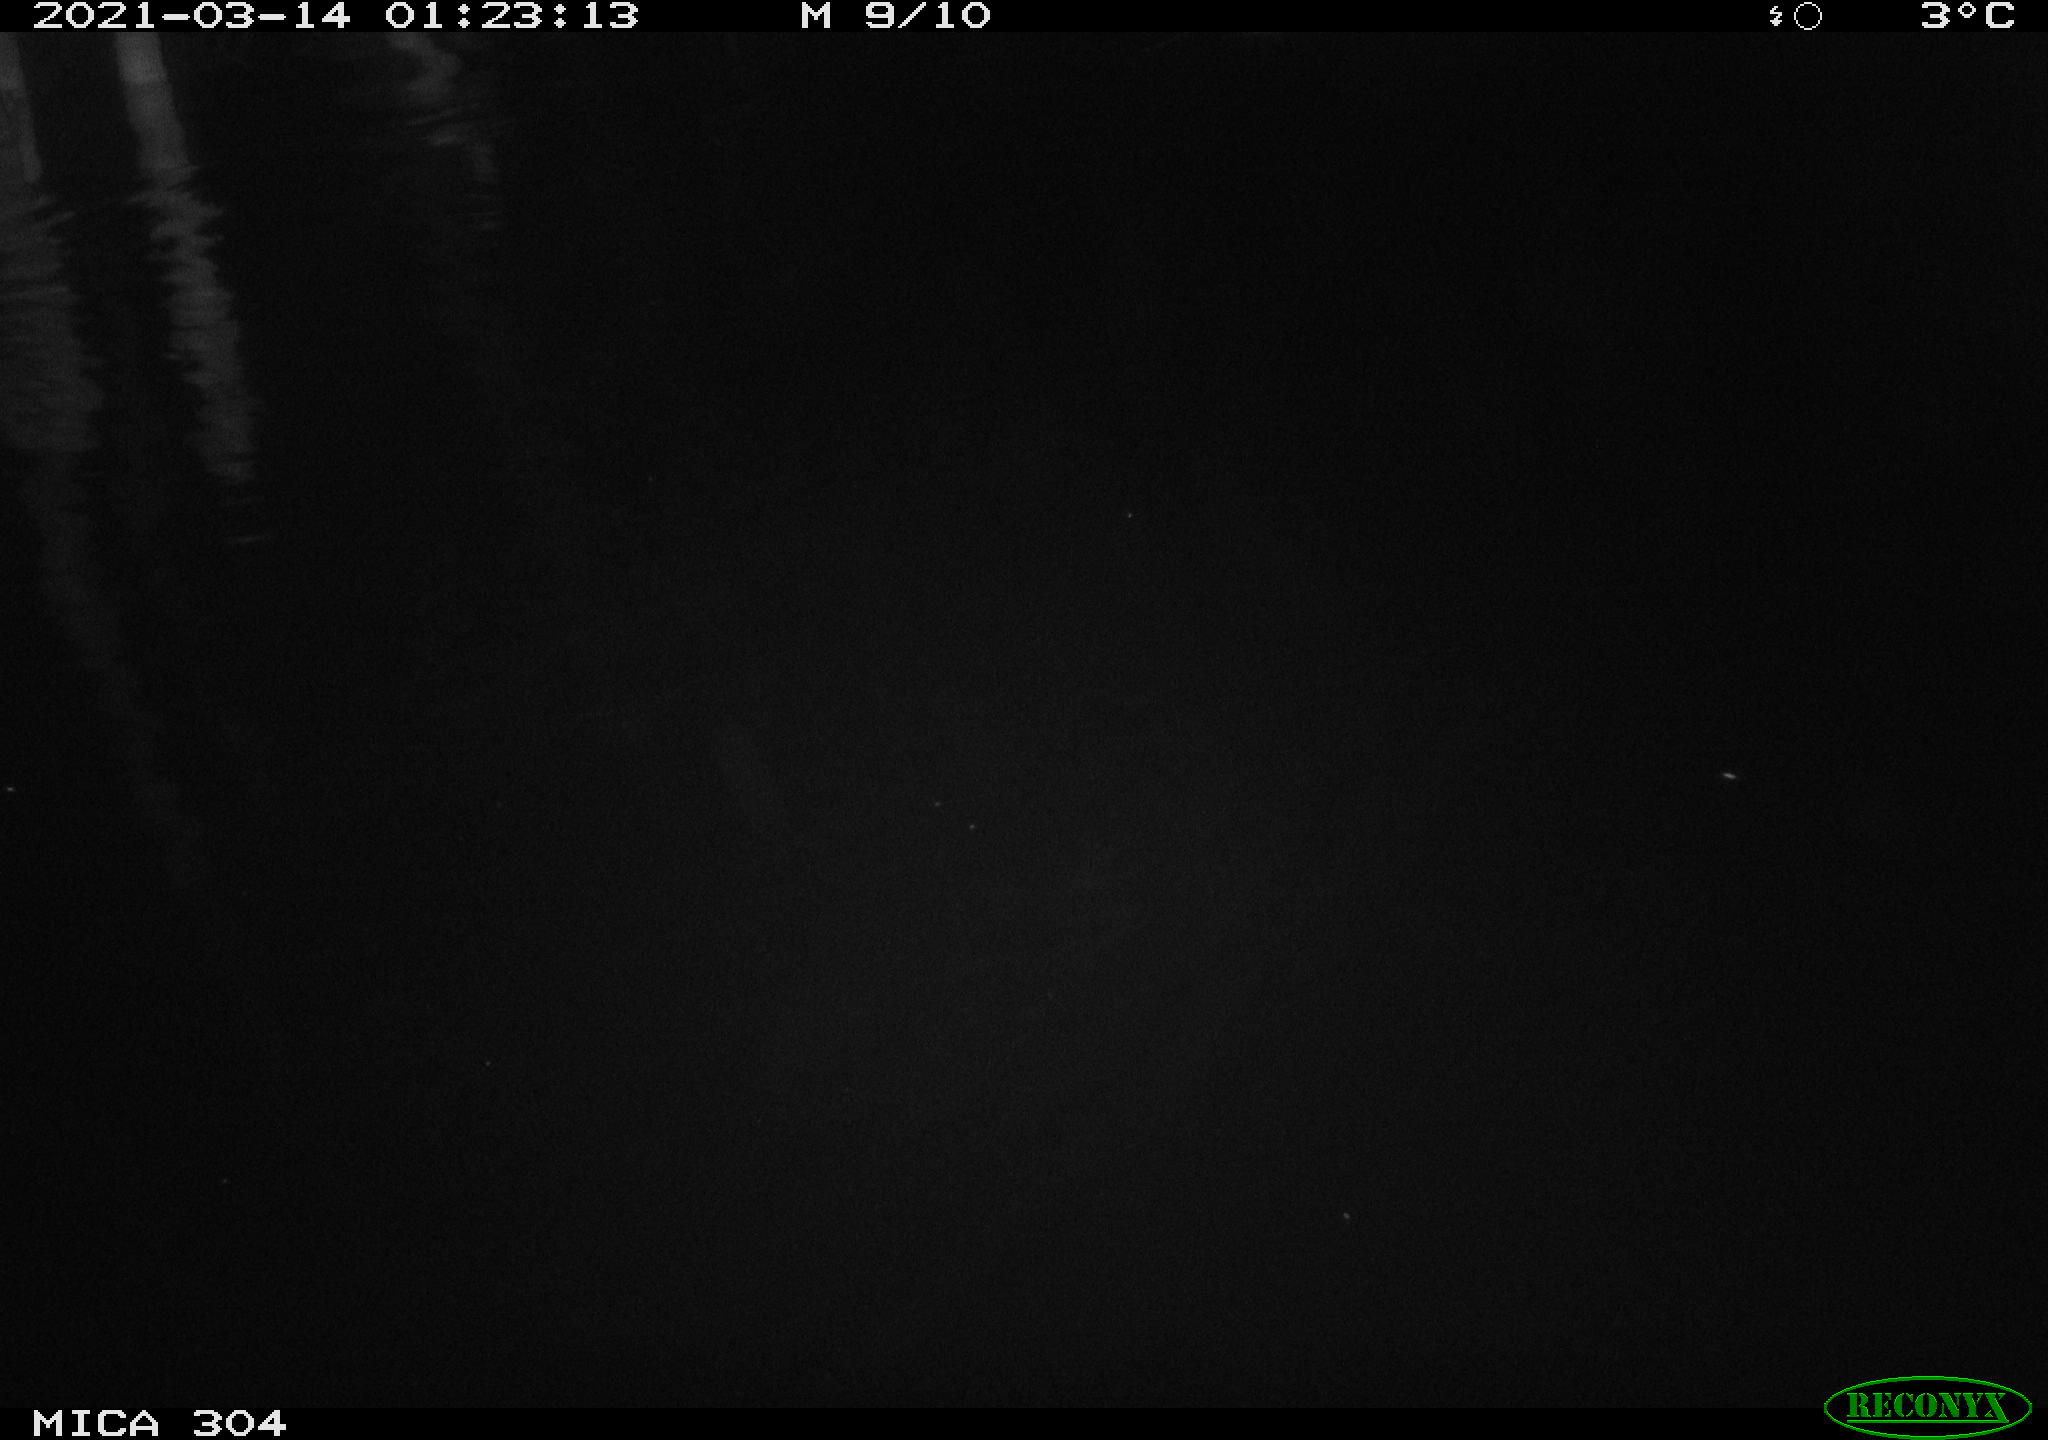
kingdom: Animalia
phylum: Chordata
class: Mammalia
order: Rodentia
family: Muridae
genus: Rattus
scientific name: Rattus norvegicus
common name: Brown rat
